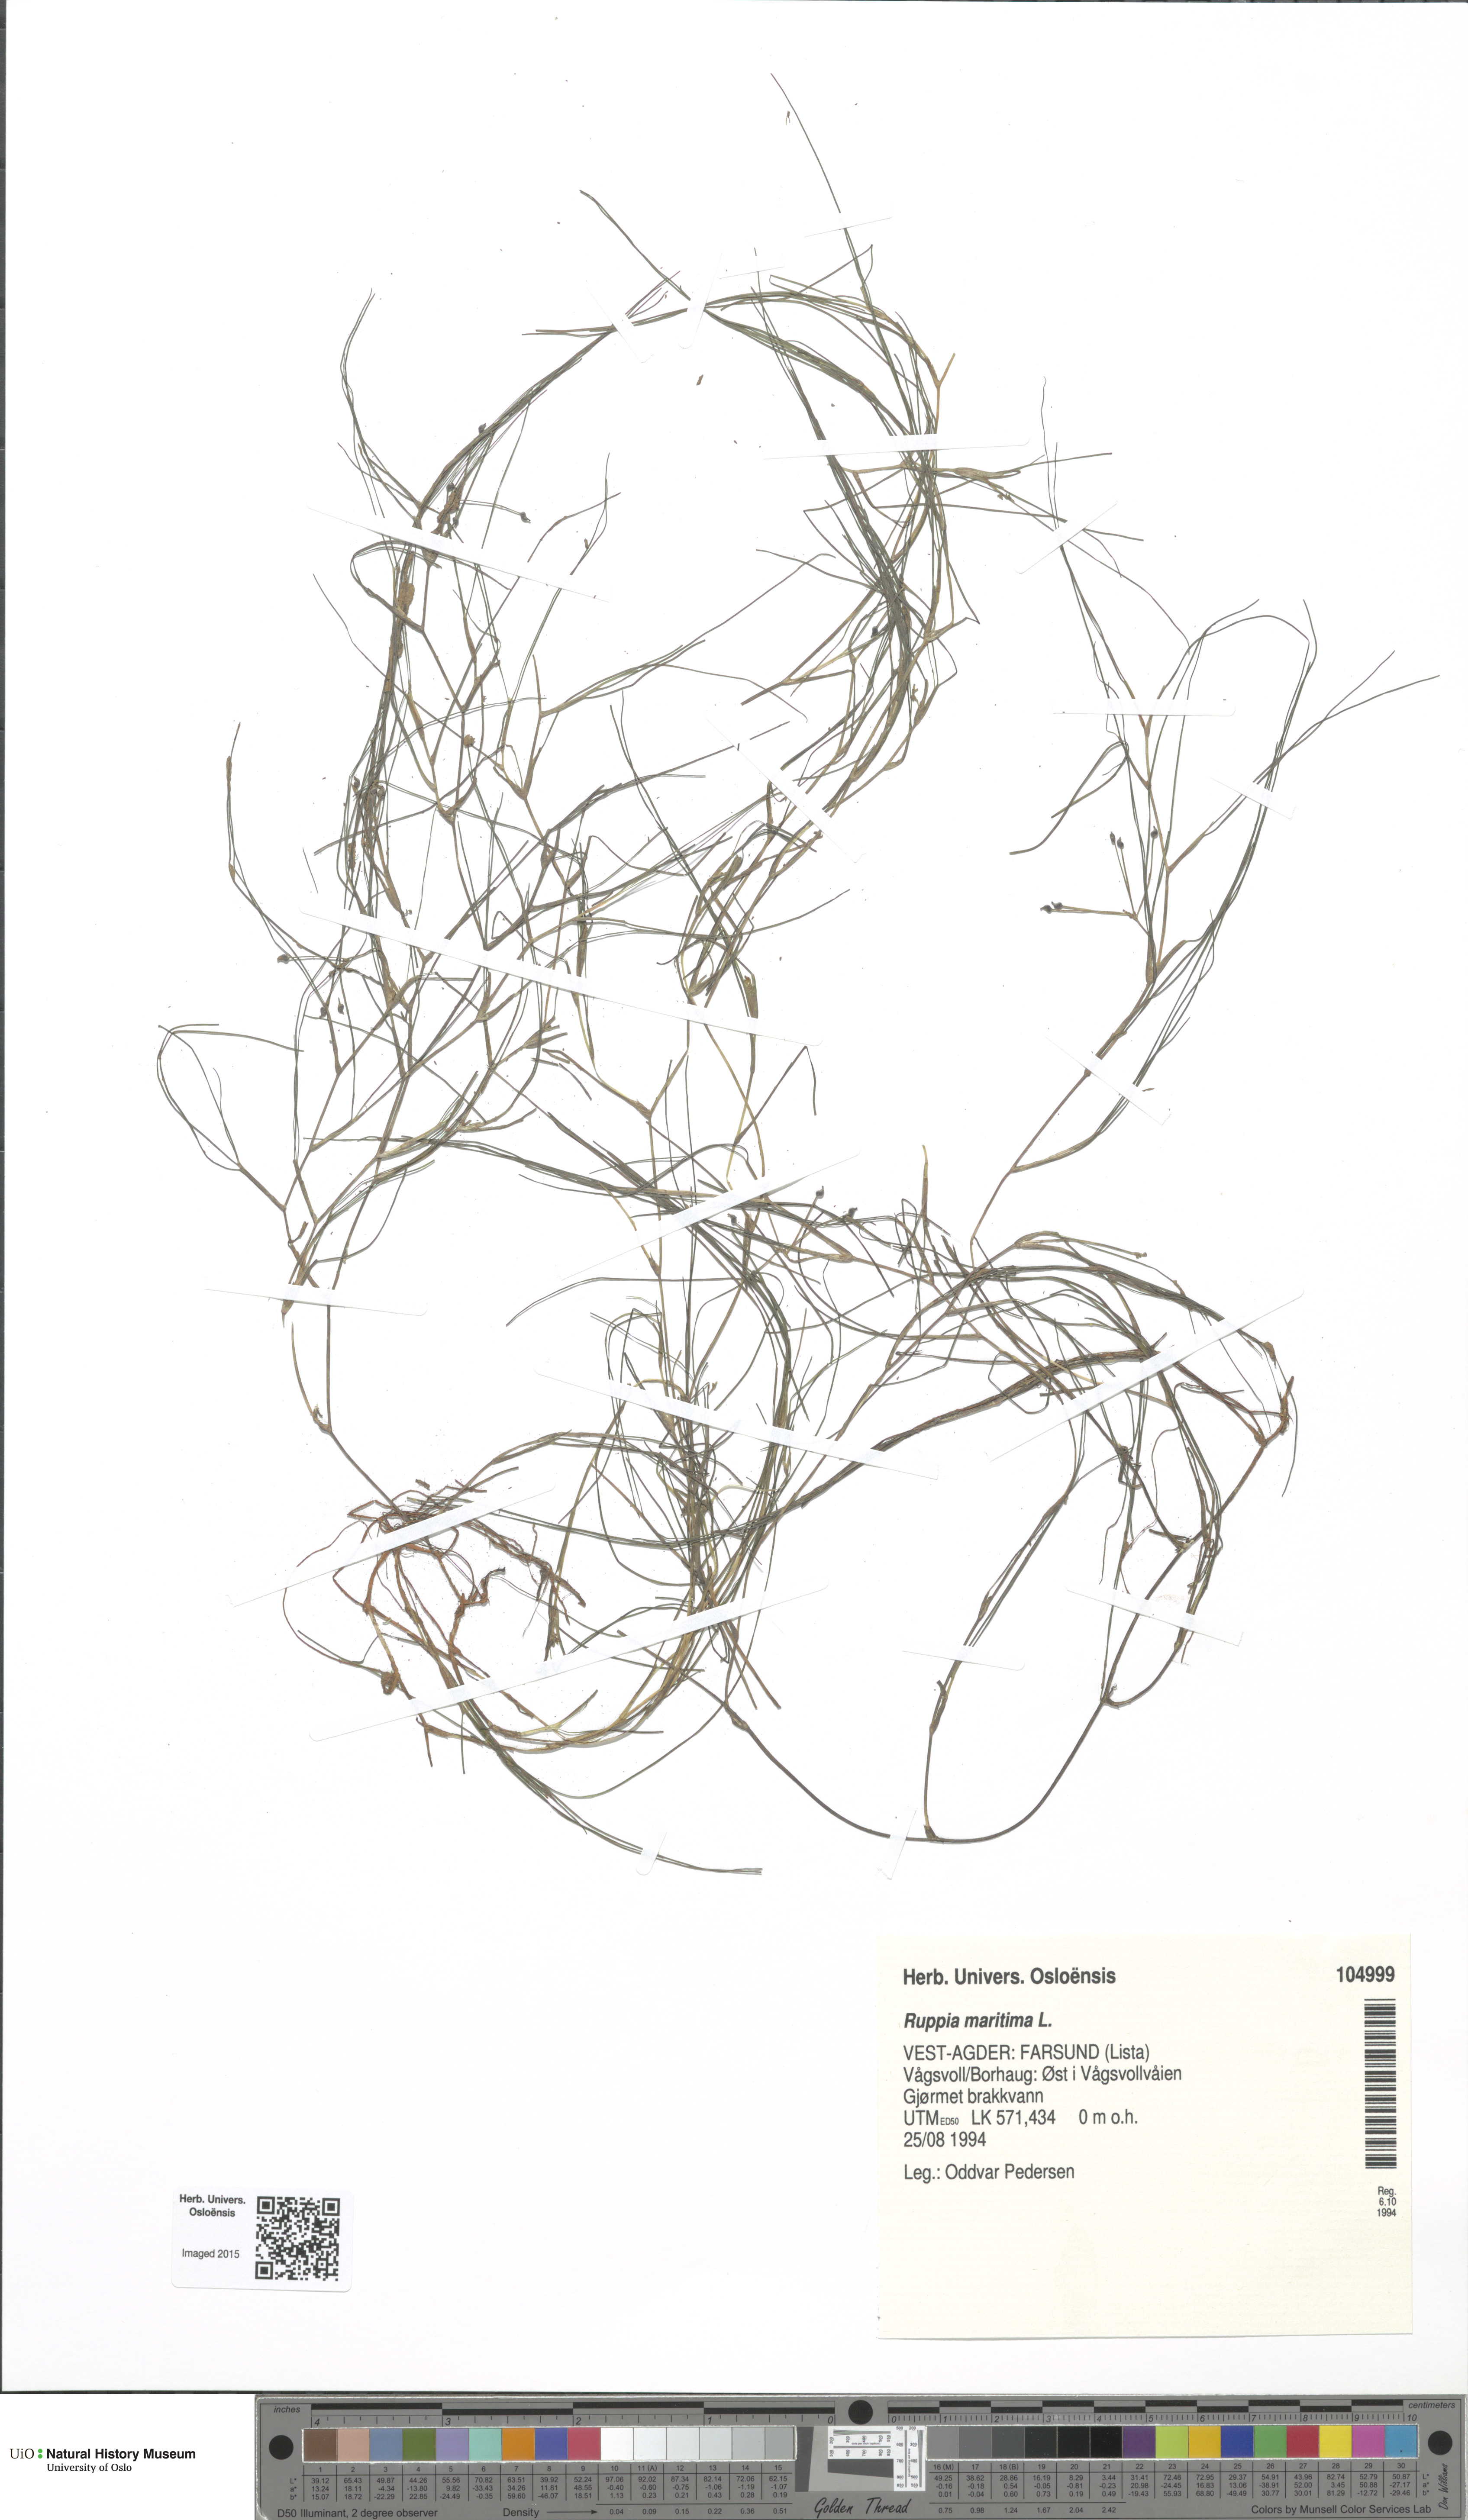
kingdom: Plantae
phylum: Tracheophyta
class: Liliopsida
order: Alismatales
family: Ruppiaceae
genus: Ruppia
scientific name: Ruppia maritima
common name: Beaked tasselweed
